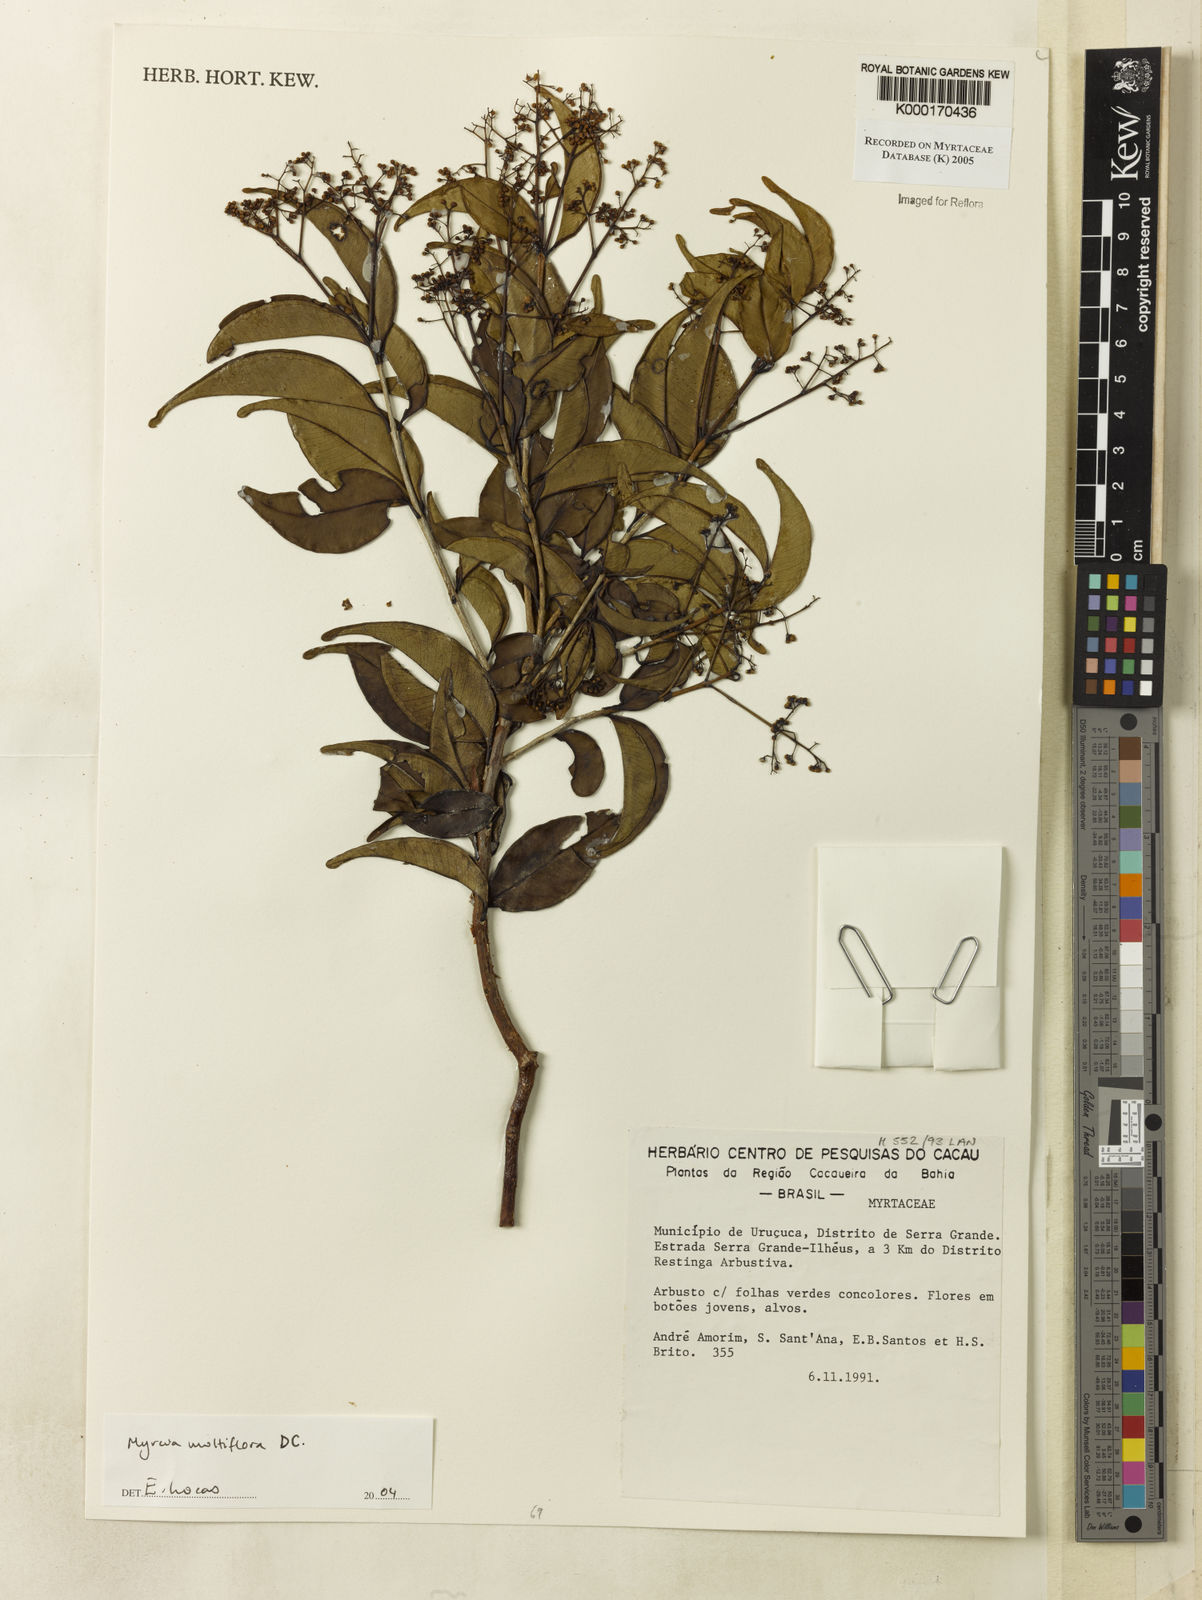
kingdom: Plantae
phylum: Tracheophyta
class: Magnoliopsida
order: Myrtales
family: Myrtaceae
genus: Myrcia
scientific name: Myrcia multiflora
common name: Pedra hume
